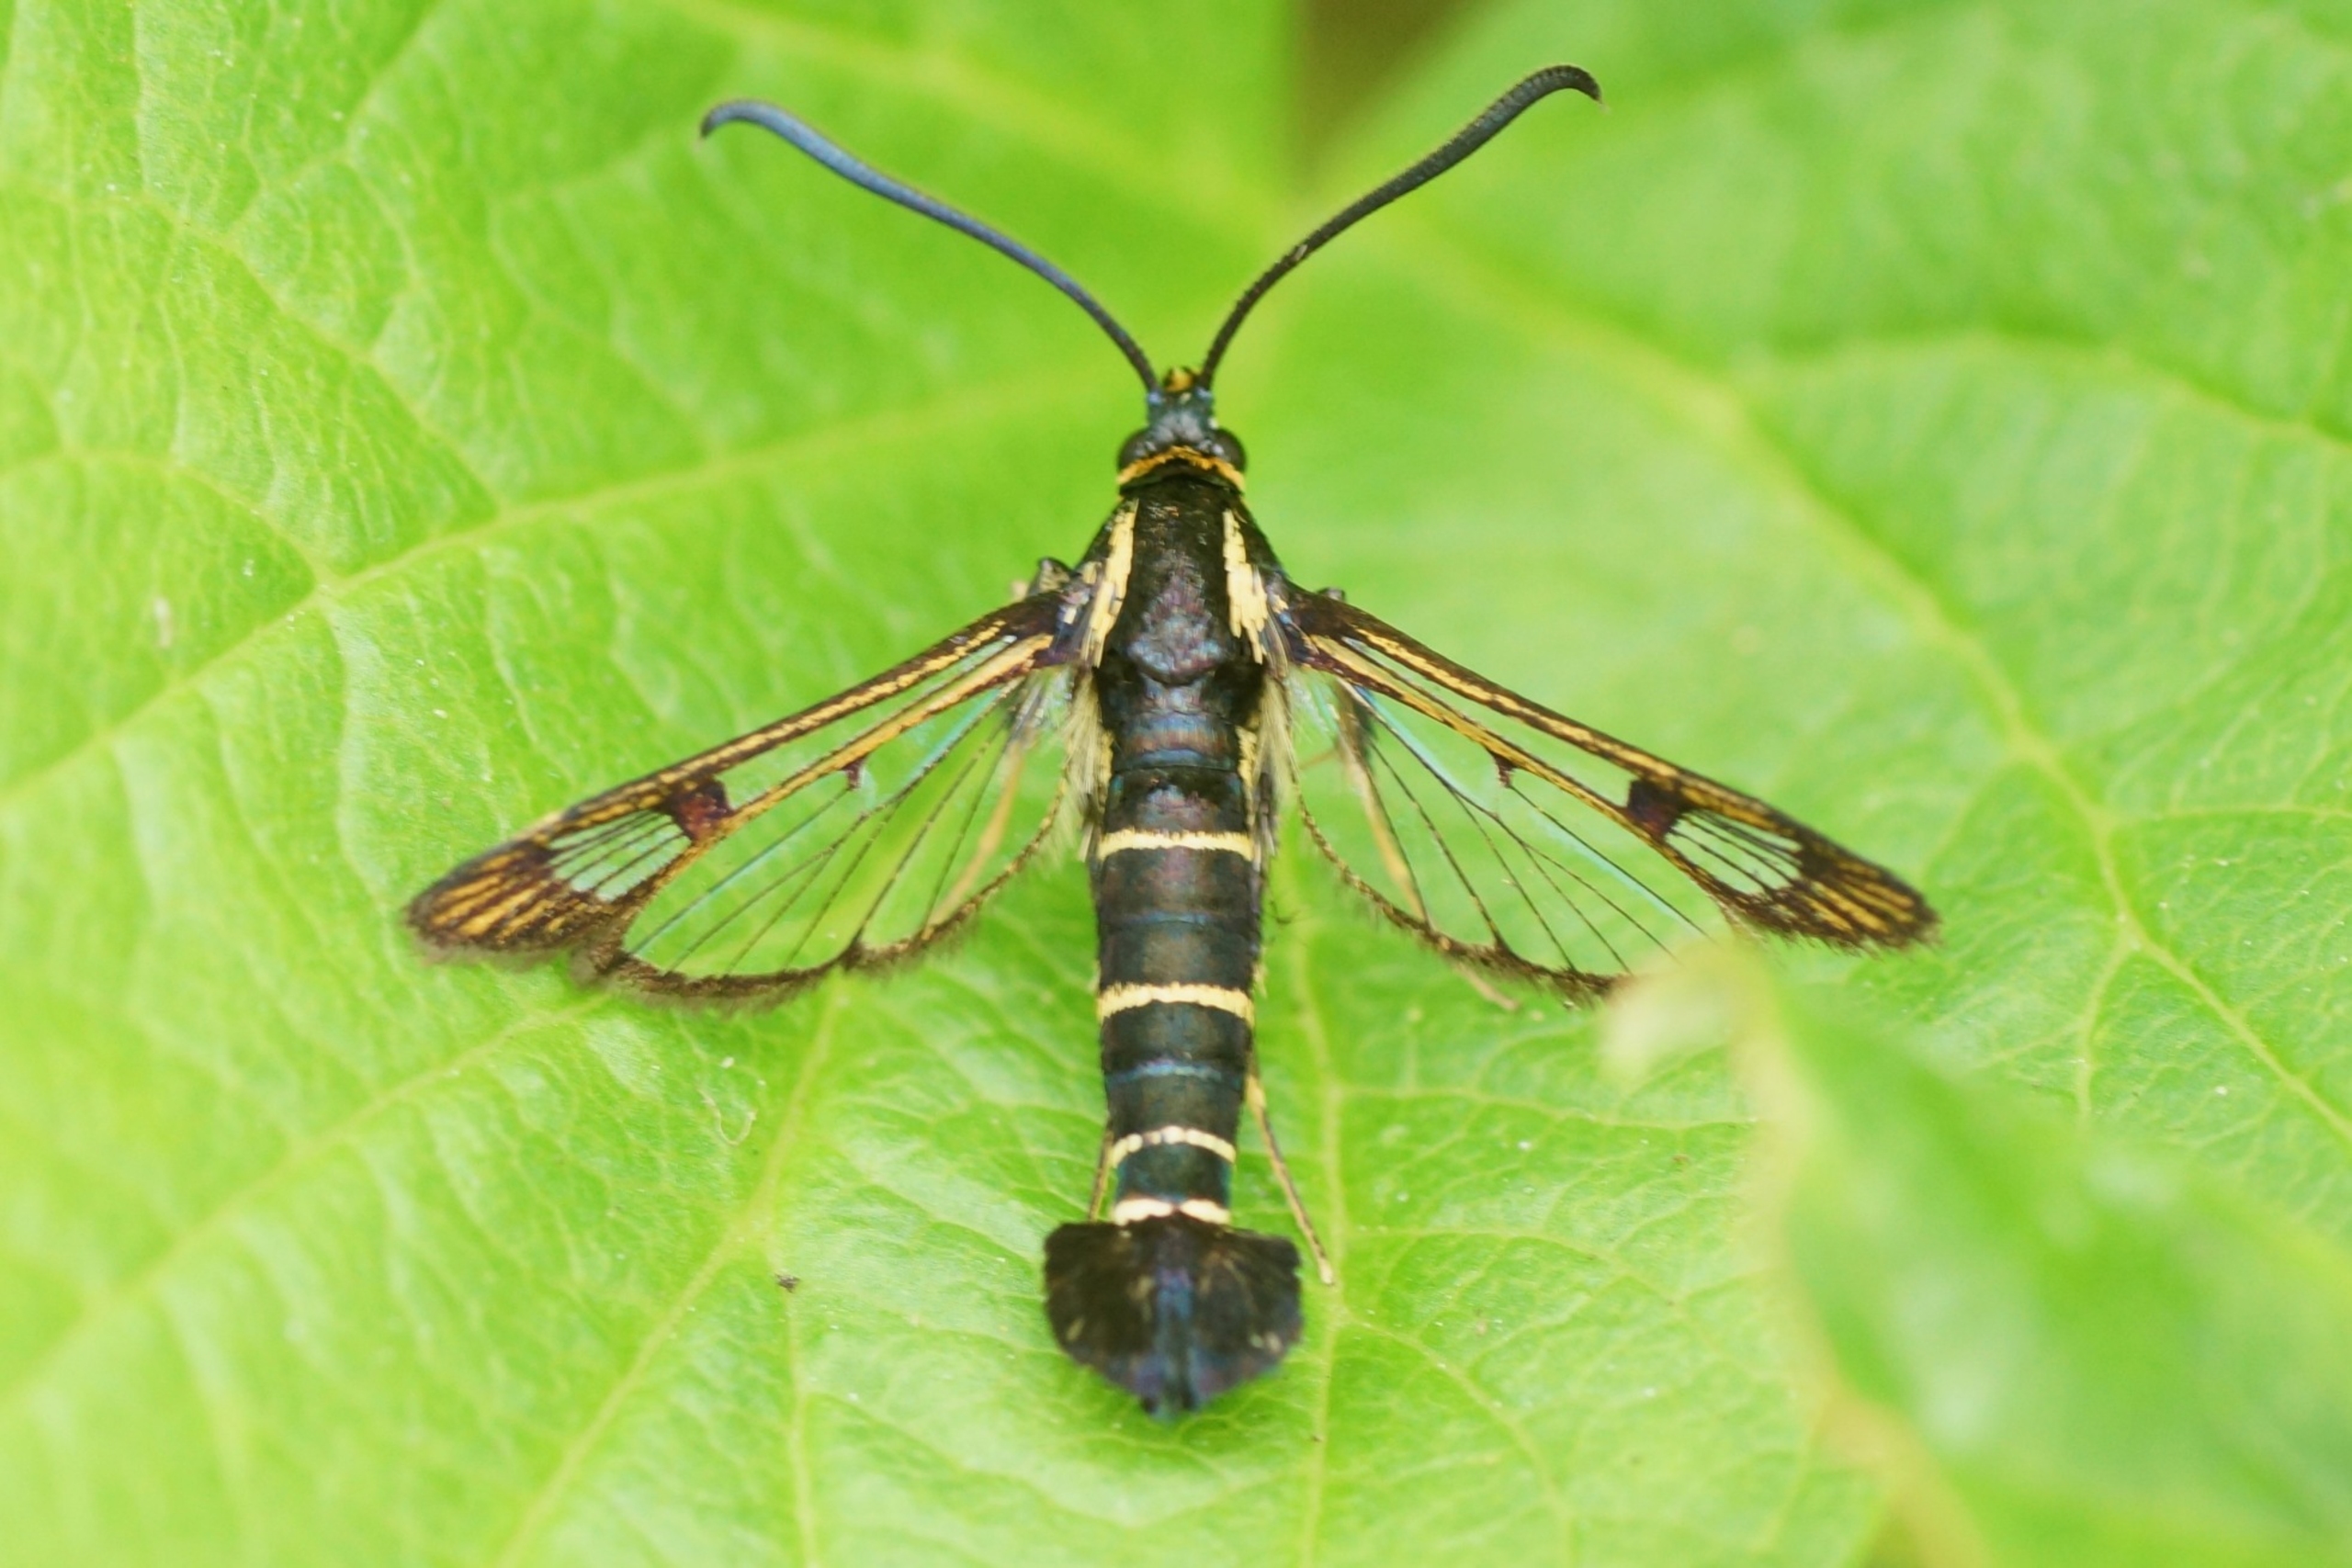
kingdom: Animalia
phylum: Arthropoda
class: Insecta
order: Lepidoptera
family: Sesiidae
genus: Synanthedon
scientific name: Synanthedon tipuliformis
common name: Ribsglassværmer
